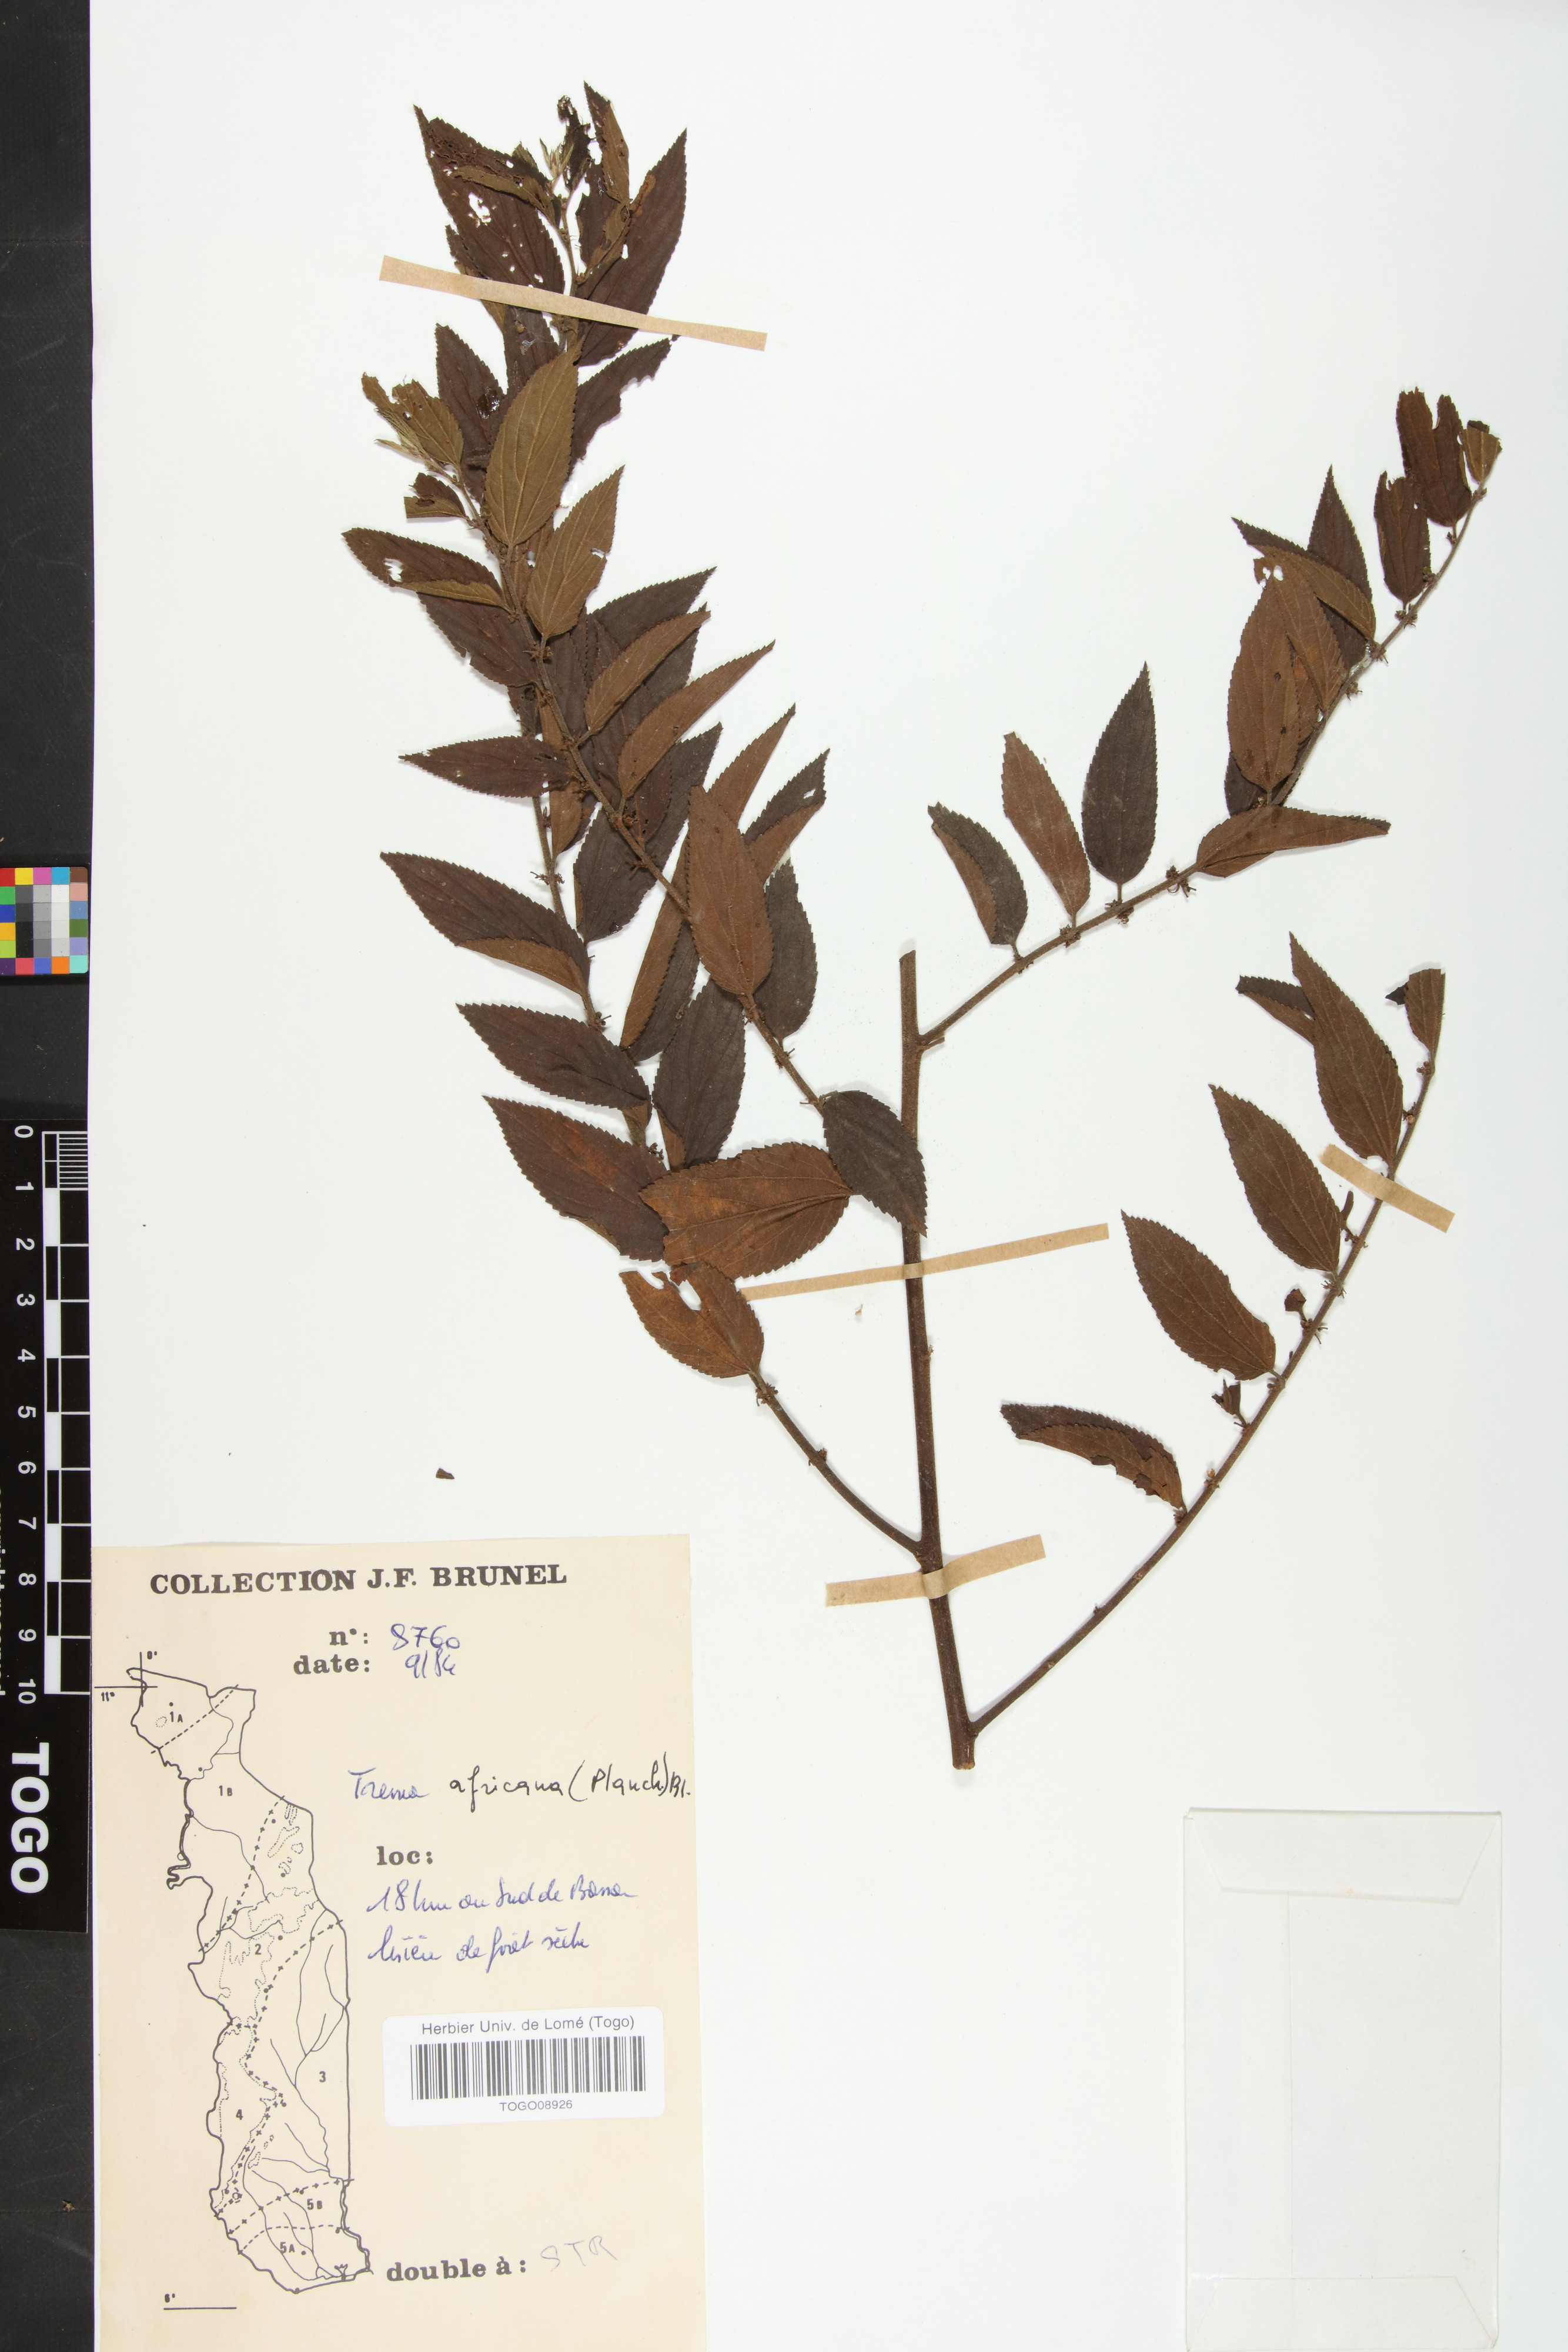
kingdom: Plantae
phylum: Tracheophyta
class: Magnoliopsida
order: Rosales
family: Cannabaceae
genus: Trema
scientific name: Trema orientale
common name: Indian charcoal tree
